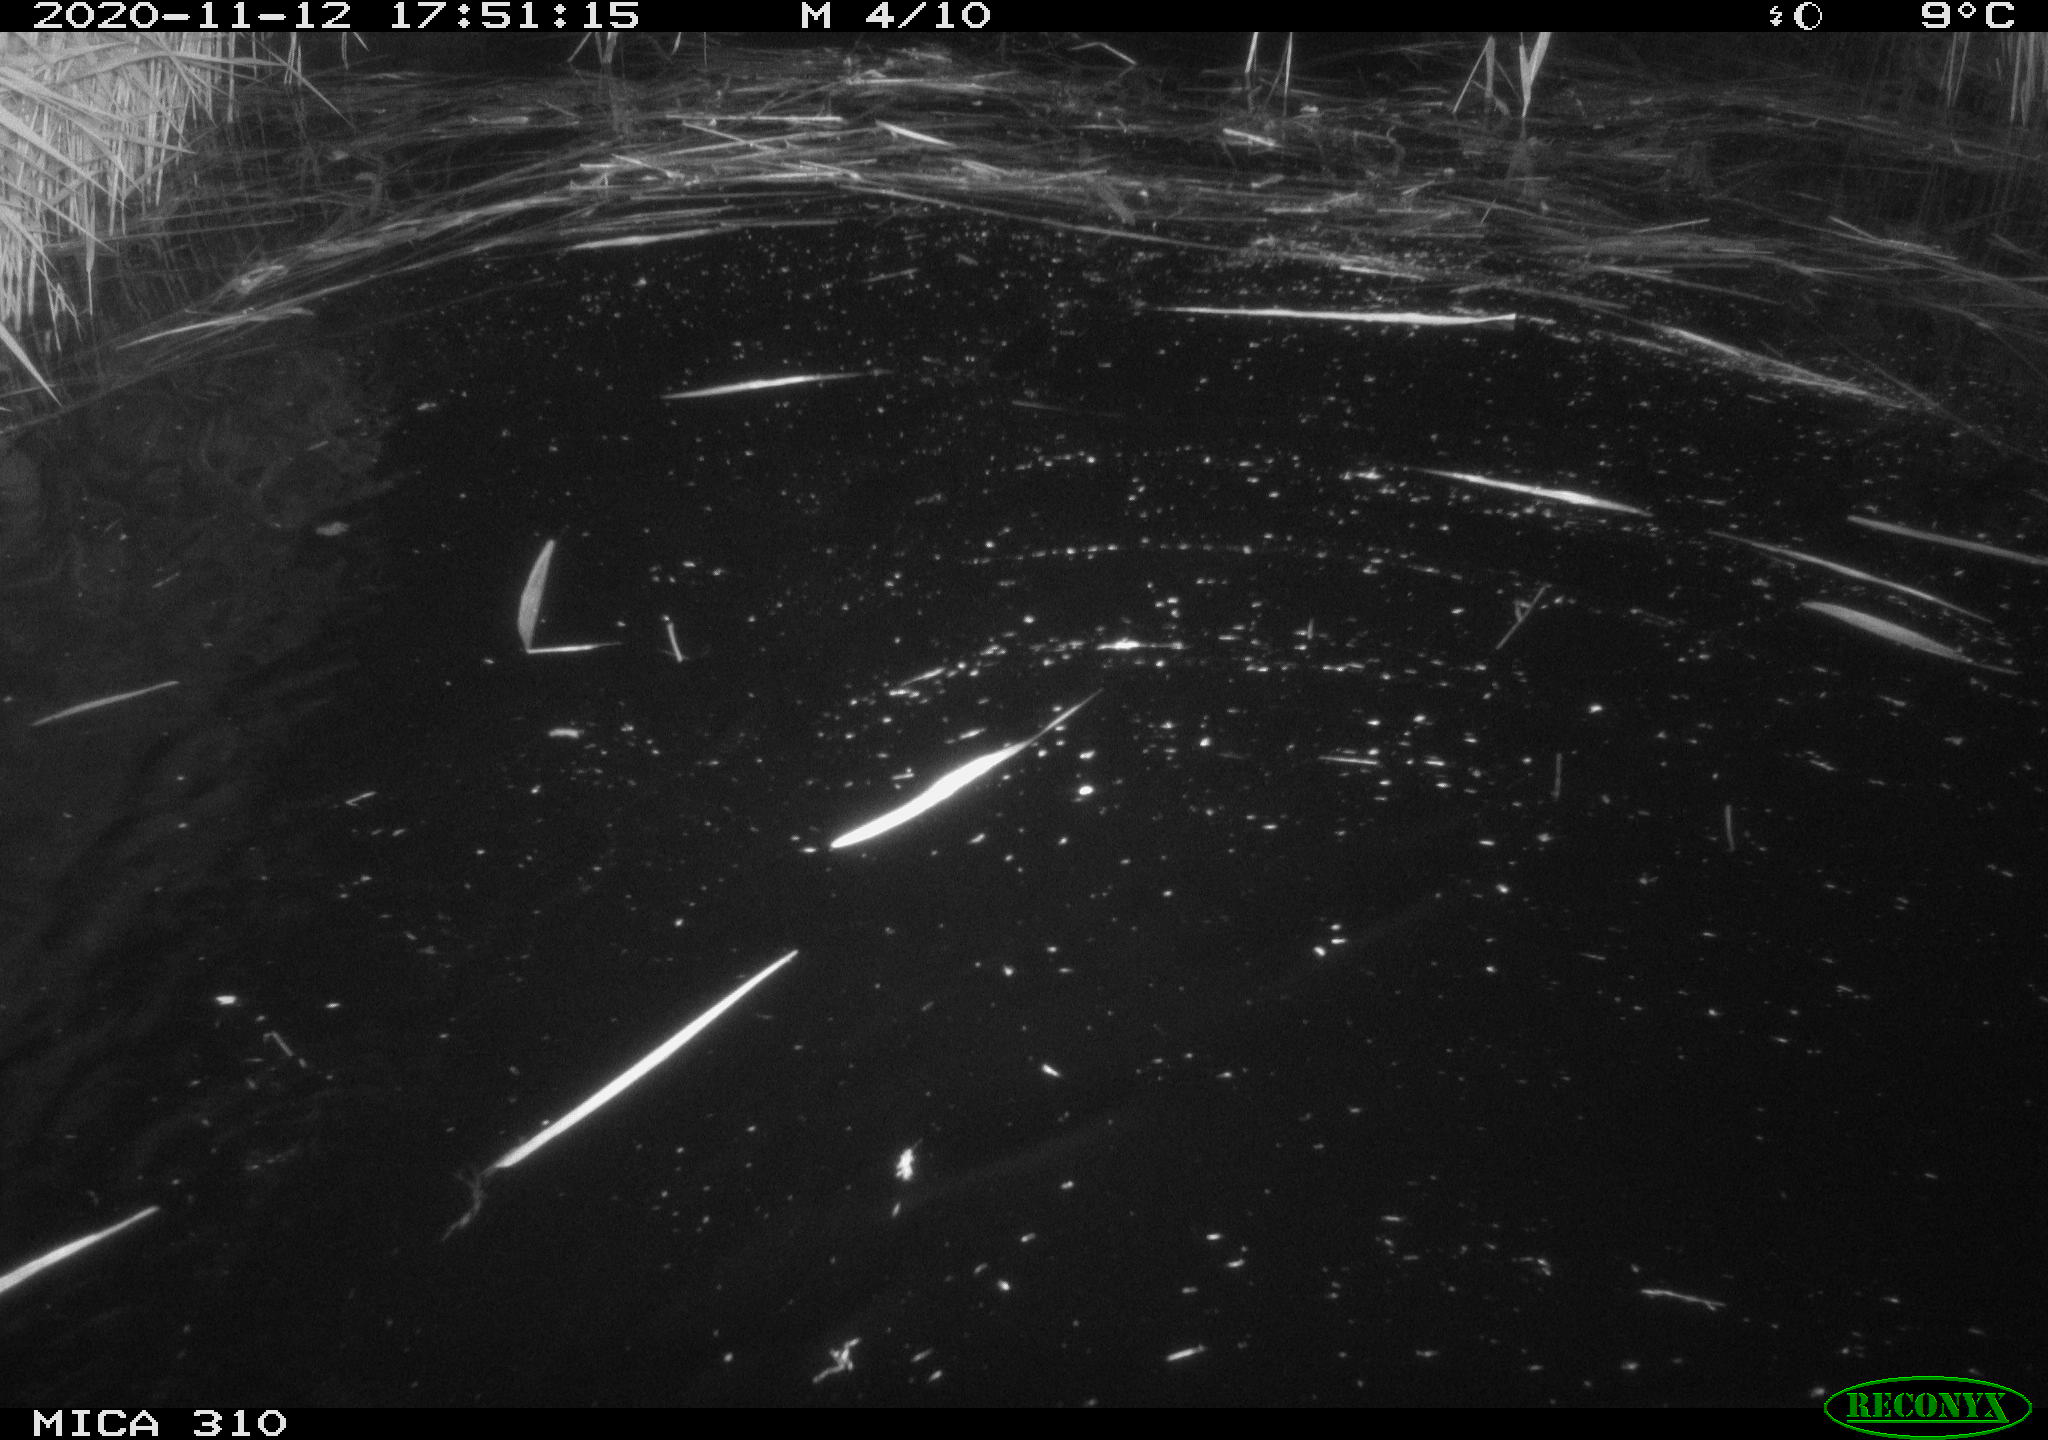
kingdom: Animalia
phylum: Chordata
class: Aves
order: Anseriformes
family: Anatidae
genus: Anas
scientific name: Anas platyrhynchos
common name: Mallard
